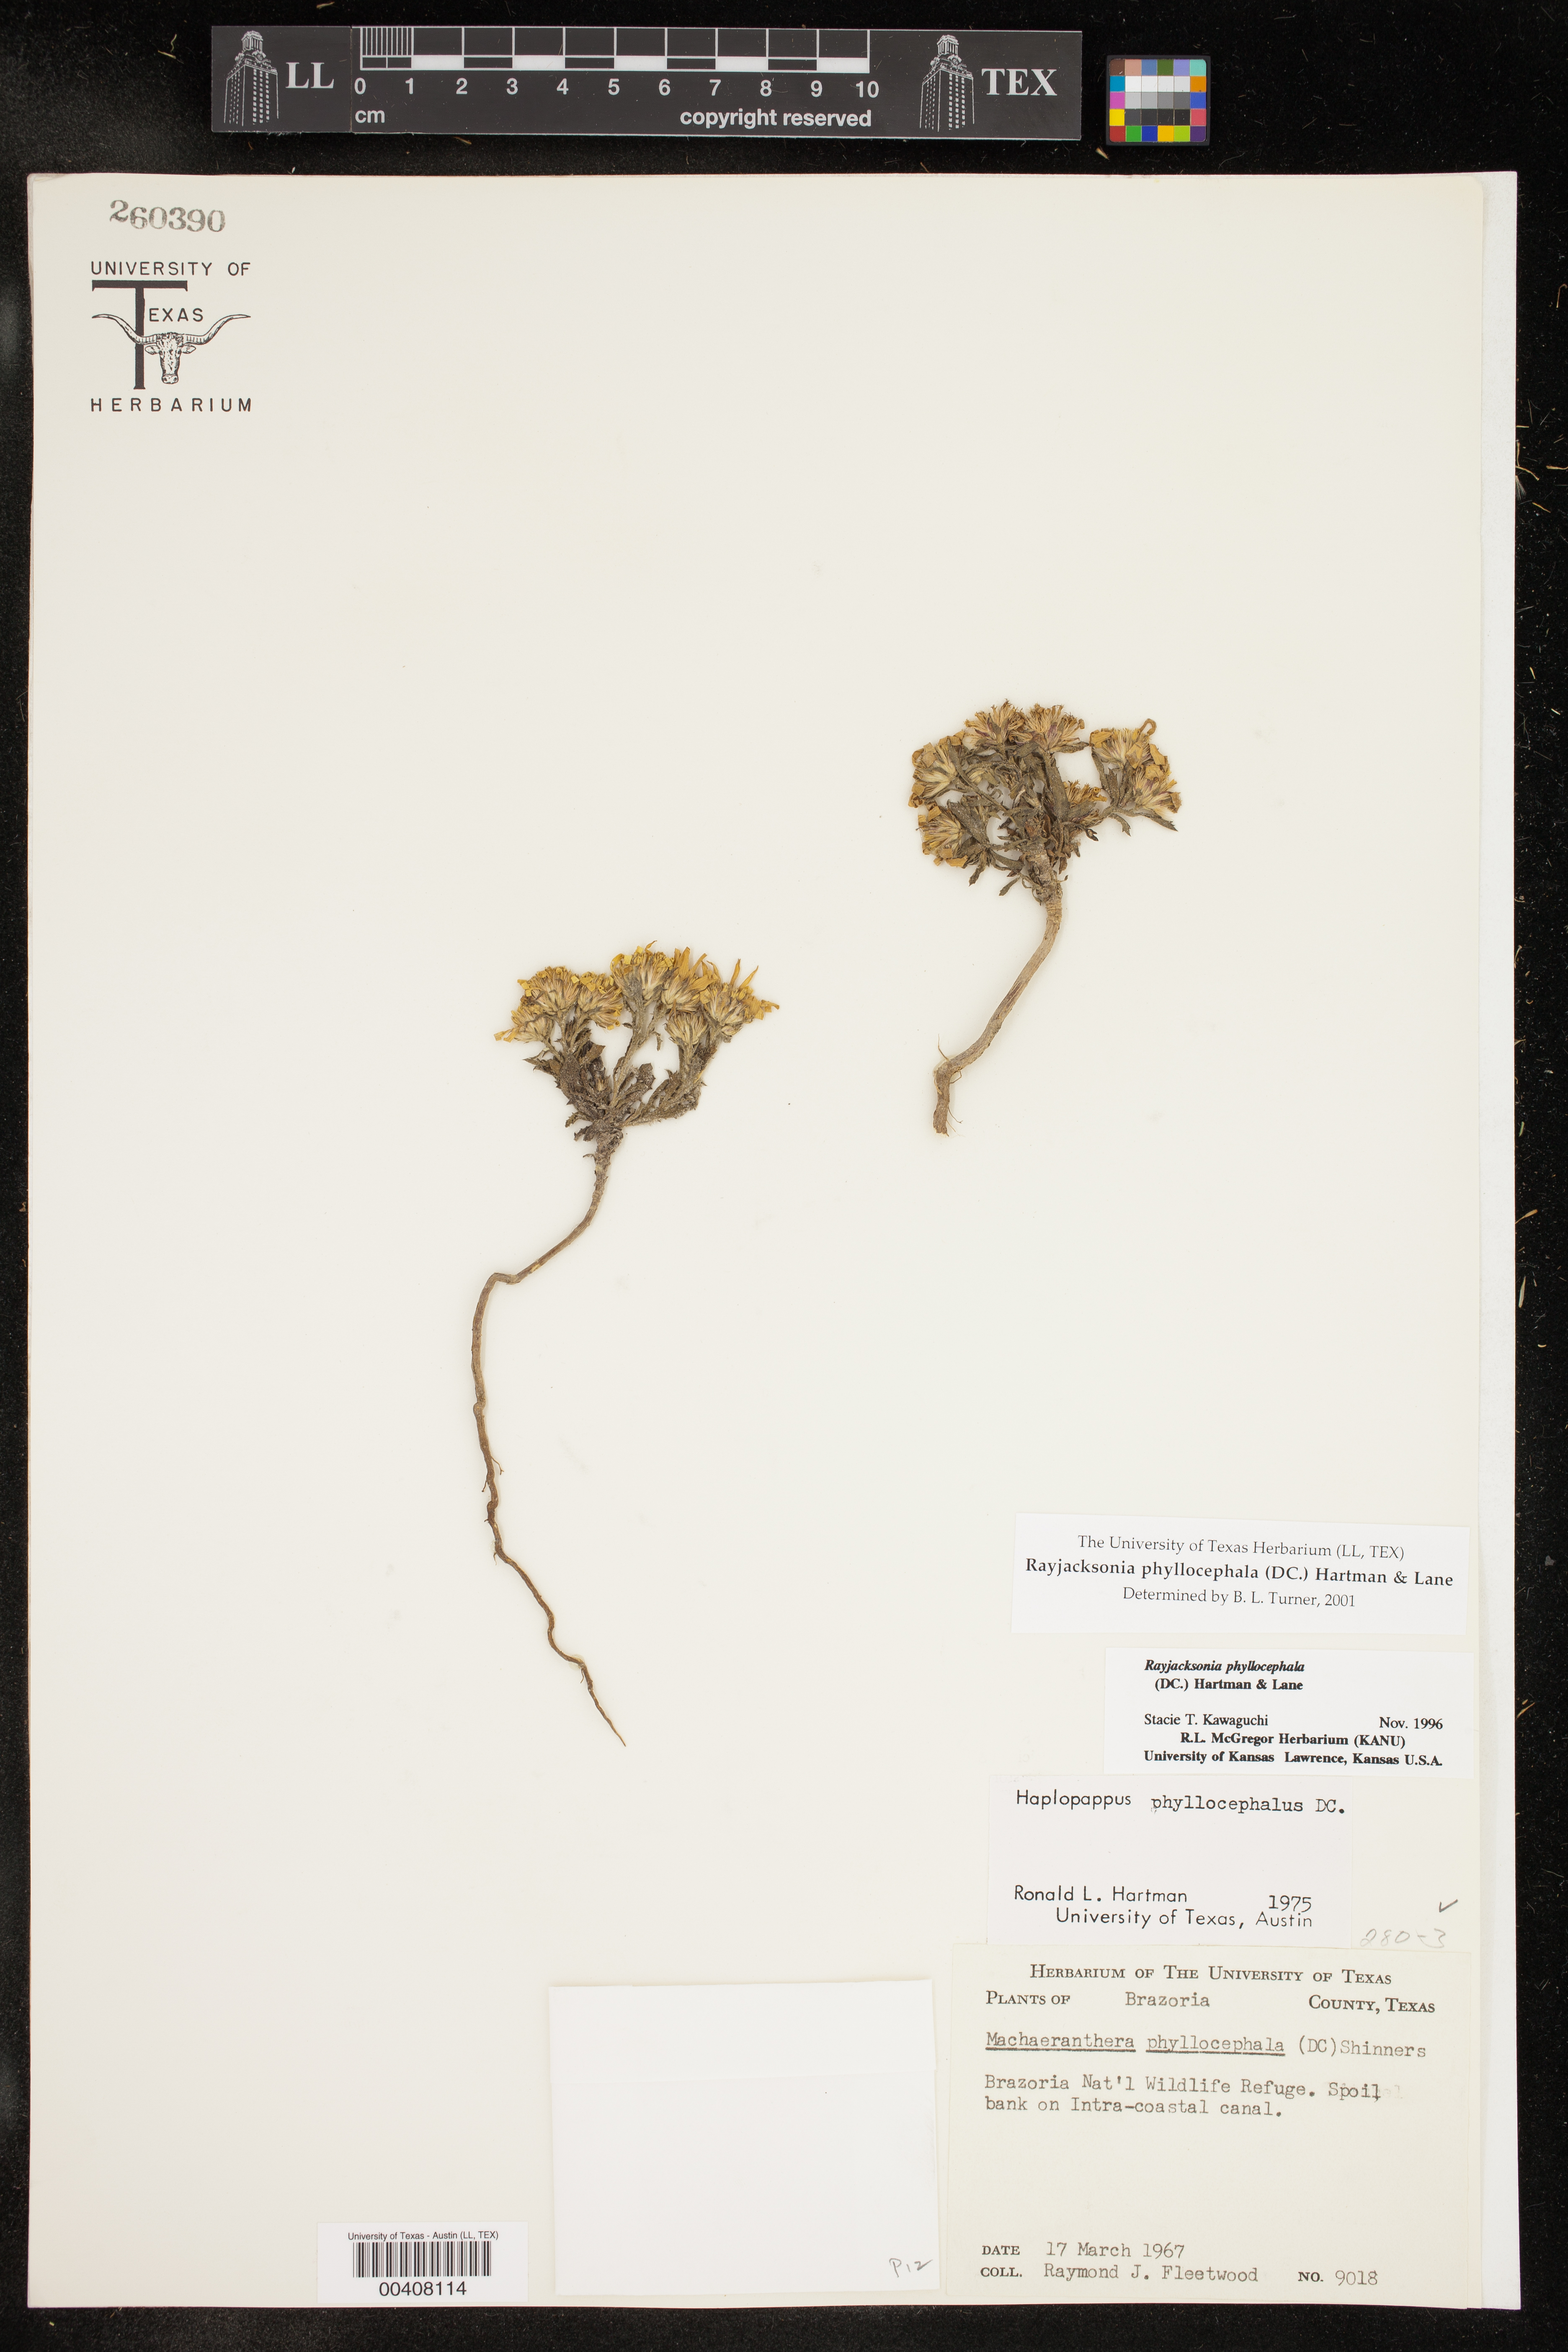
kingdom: Plantae
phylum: Tracheophyta
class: Magnoliopsida
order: Asterales
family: Asteraceae
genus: Rayjacksonia
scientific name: Rayjacksonia phyllocephala
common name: Gulf coast camphor daisy
